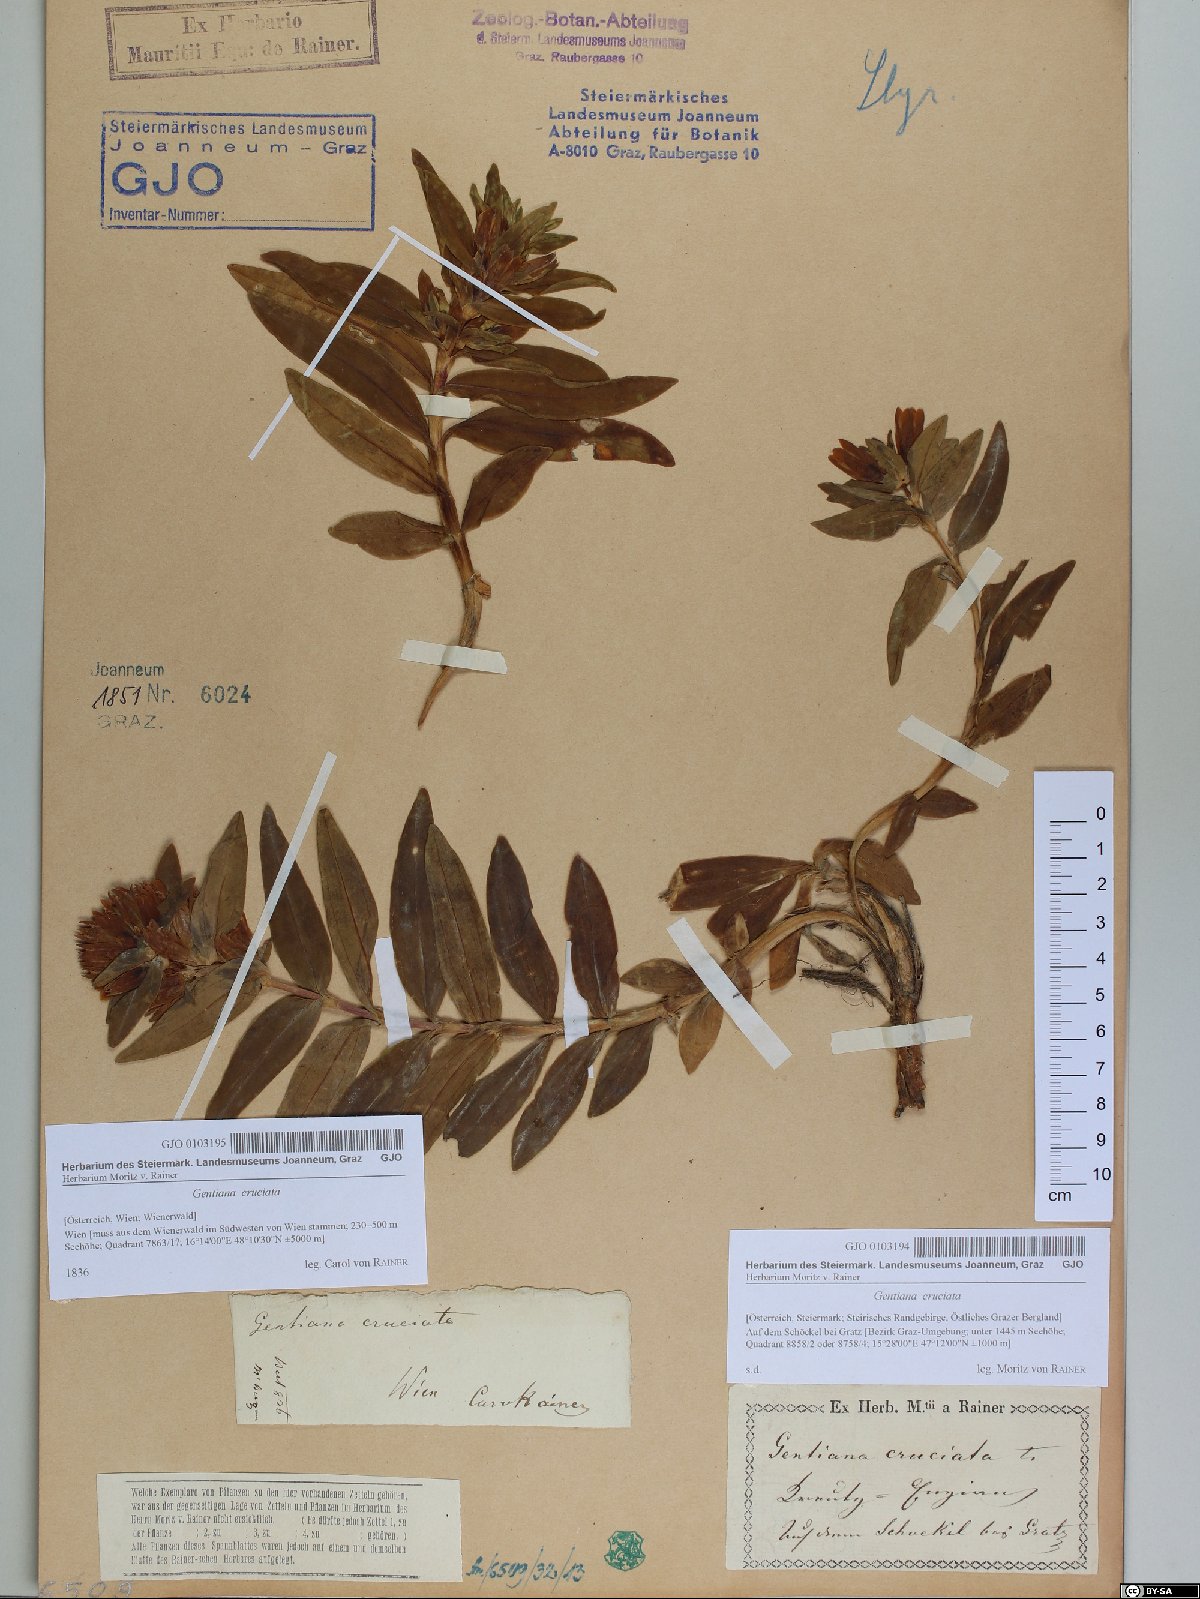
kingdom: Plantae
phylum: Tracheophyta
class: Magnoliopsida
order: Gentianales
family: Gentianaceae
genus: Gentiana
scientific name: Gentiana cruciata
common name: Cross gentian
